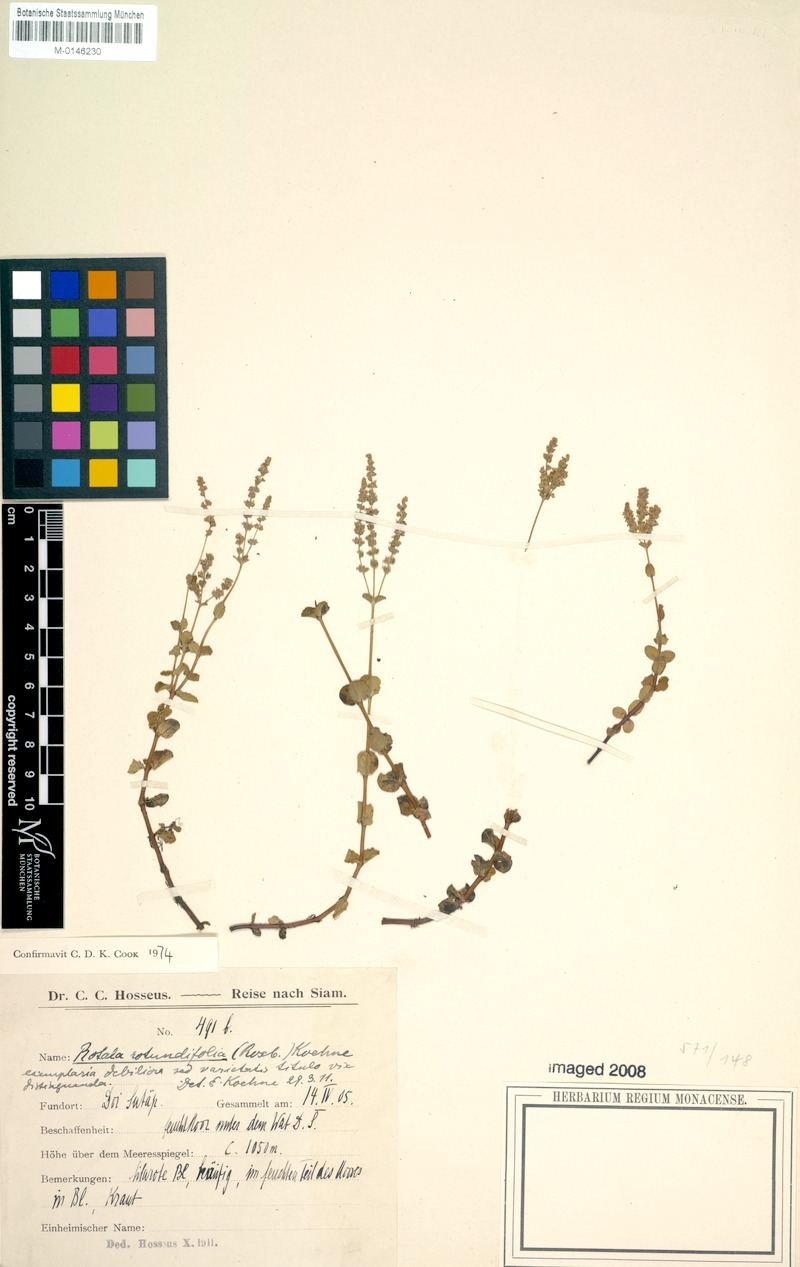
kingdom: Plantae
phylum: Tracheophyta
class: Magnoliopsida
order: Myrtales
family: Lythraceae
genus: Rotala
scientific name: Rotala rotundifolia
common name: Roundleaf toothcup
